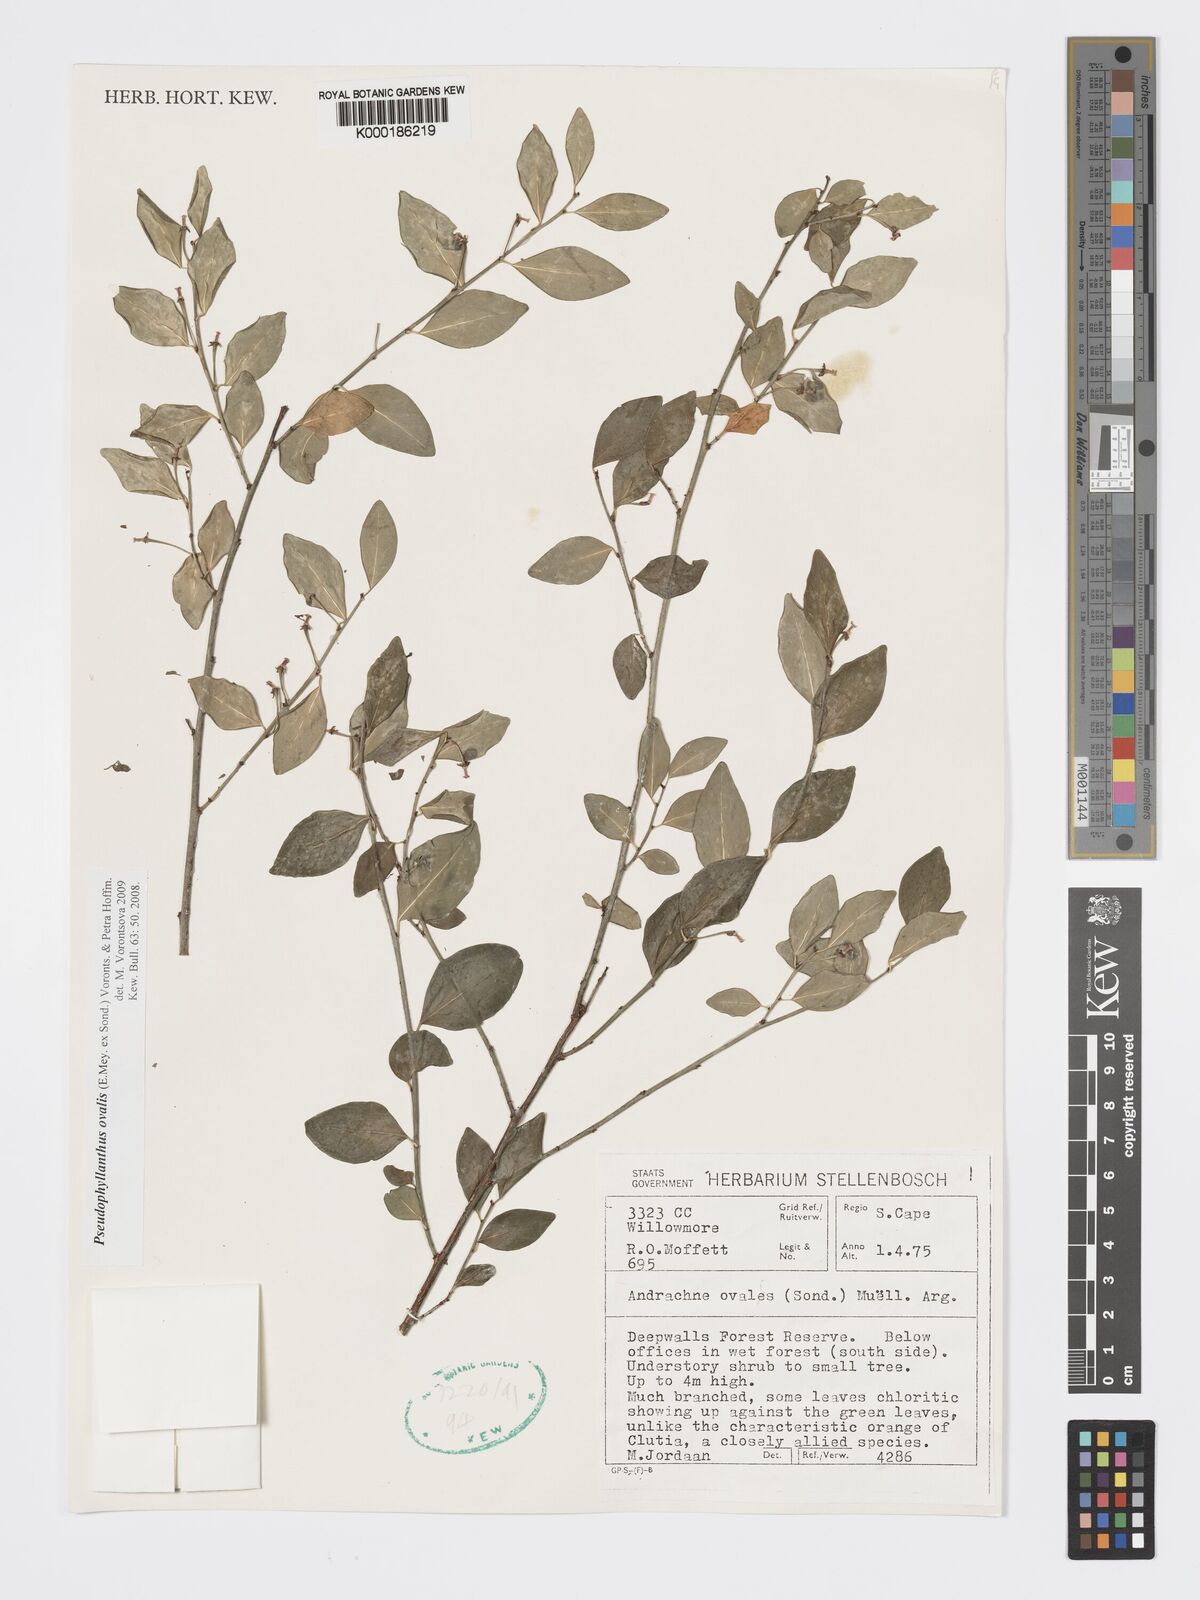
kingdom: Plantae
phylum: Tracheophyta
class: Magnoliopsida
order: Malpighiales
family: Phyllanthaceae
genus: Pseudophyllanthus
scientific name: Pseudophyllanthus ovalis
